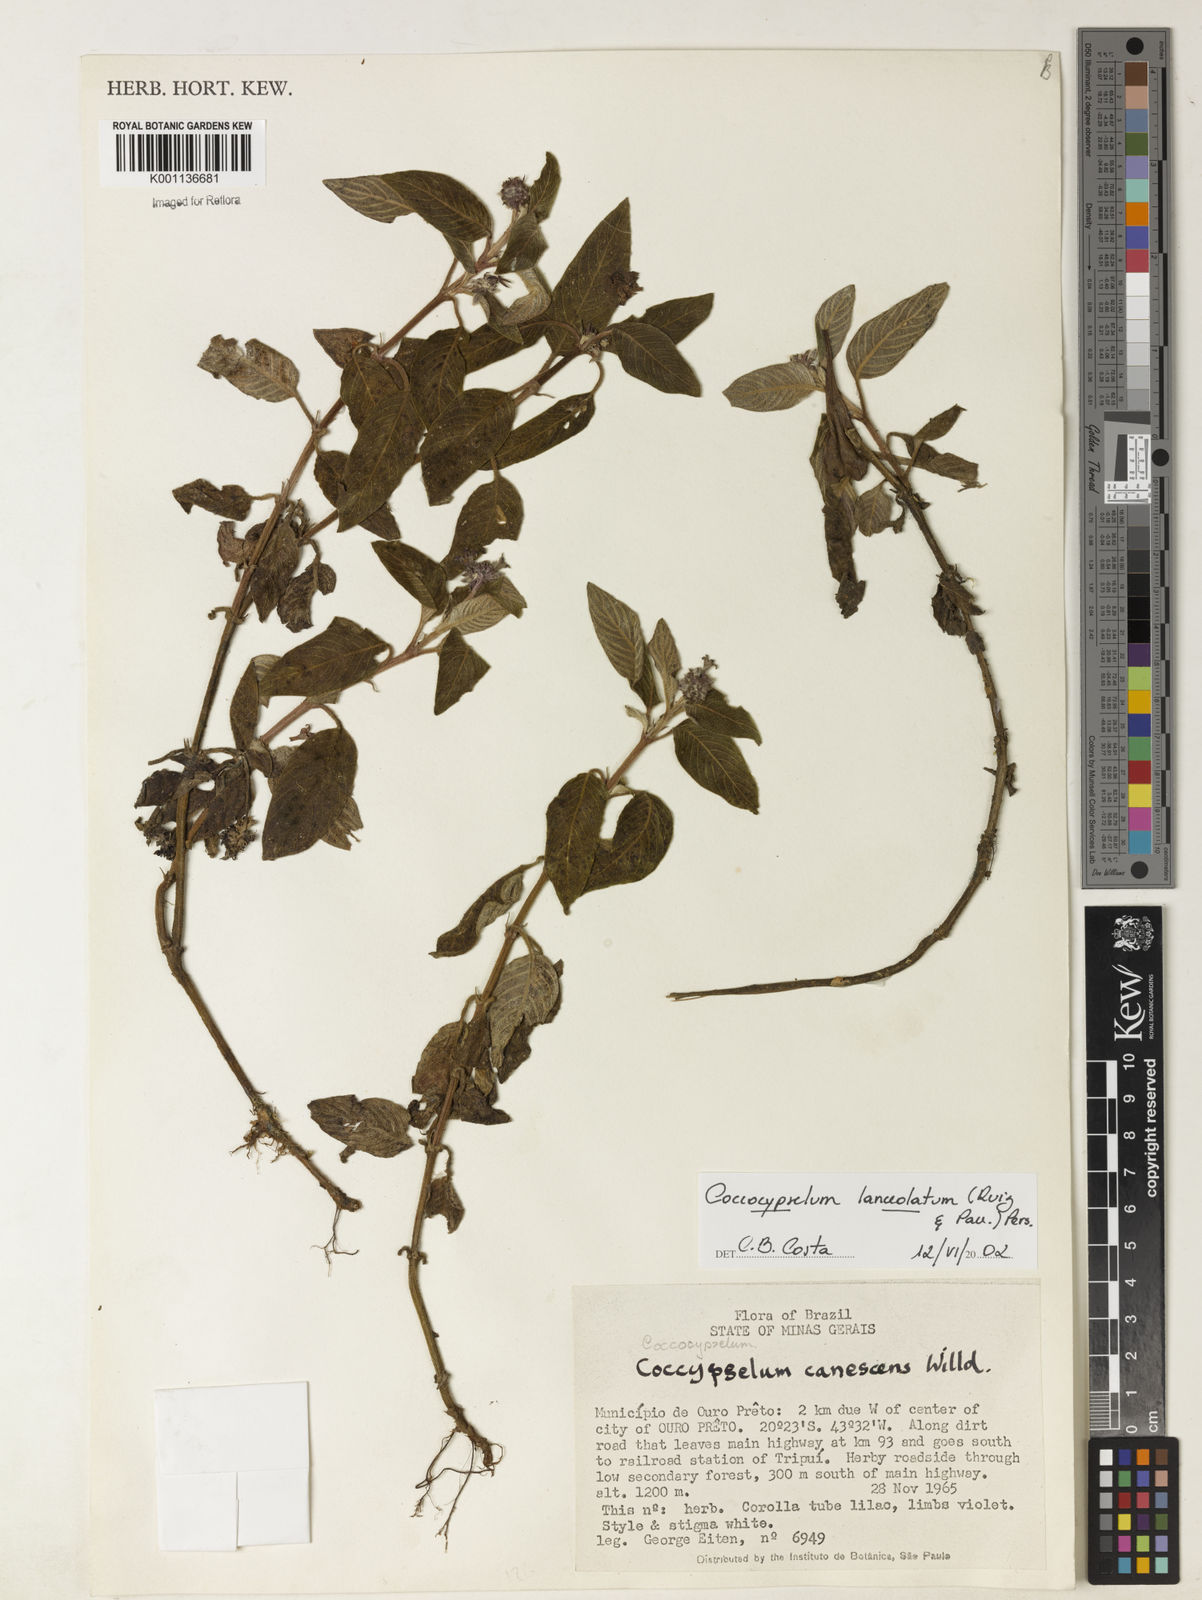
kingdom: Plantae
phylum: Tracheophyta
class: Magnoliopsida
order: Gentianales
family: Rubiaceae
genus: Coccocypselum
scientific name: Coccocypselum lanceolatum
